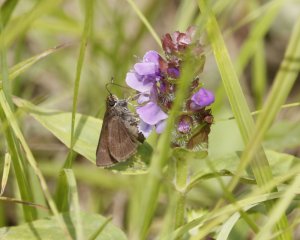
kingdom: Animalia
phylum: Arthropoda
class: Insecta
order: Lepidoptera
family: Hesperiidae
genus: Euphyes
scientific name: Euphyes vestris
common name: Dun Skipper
